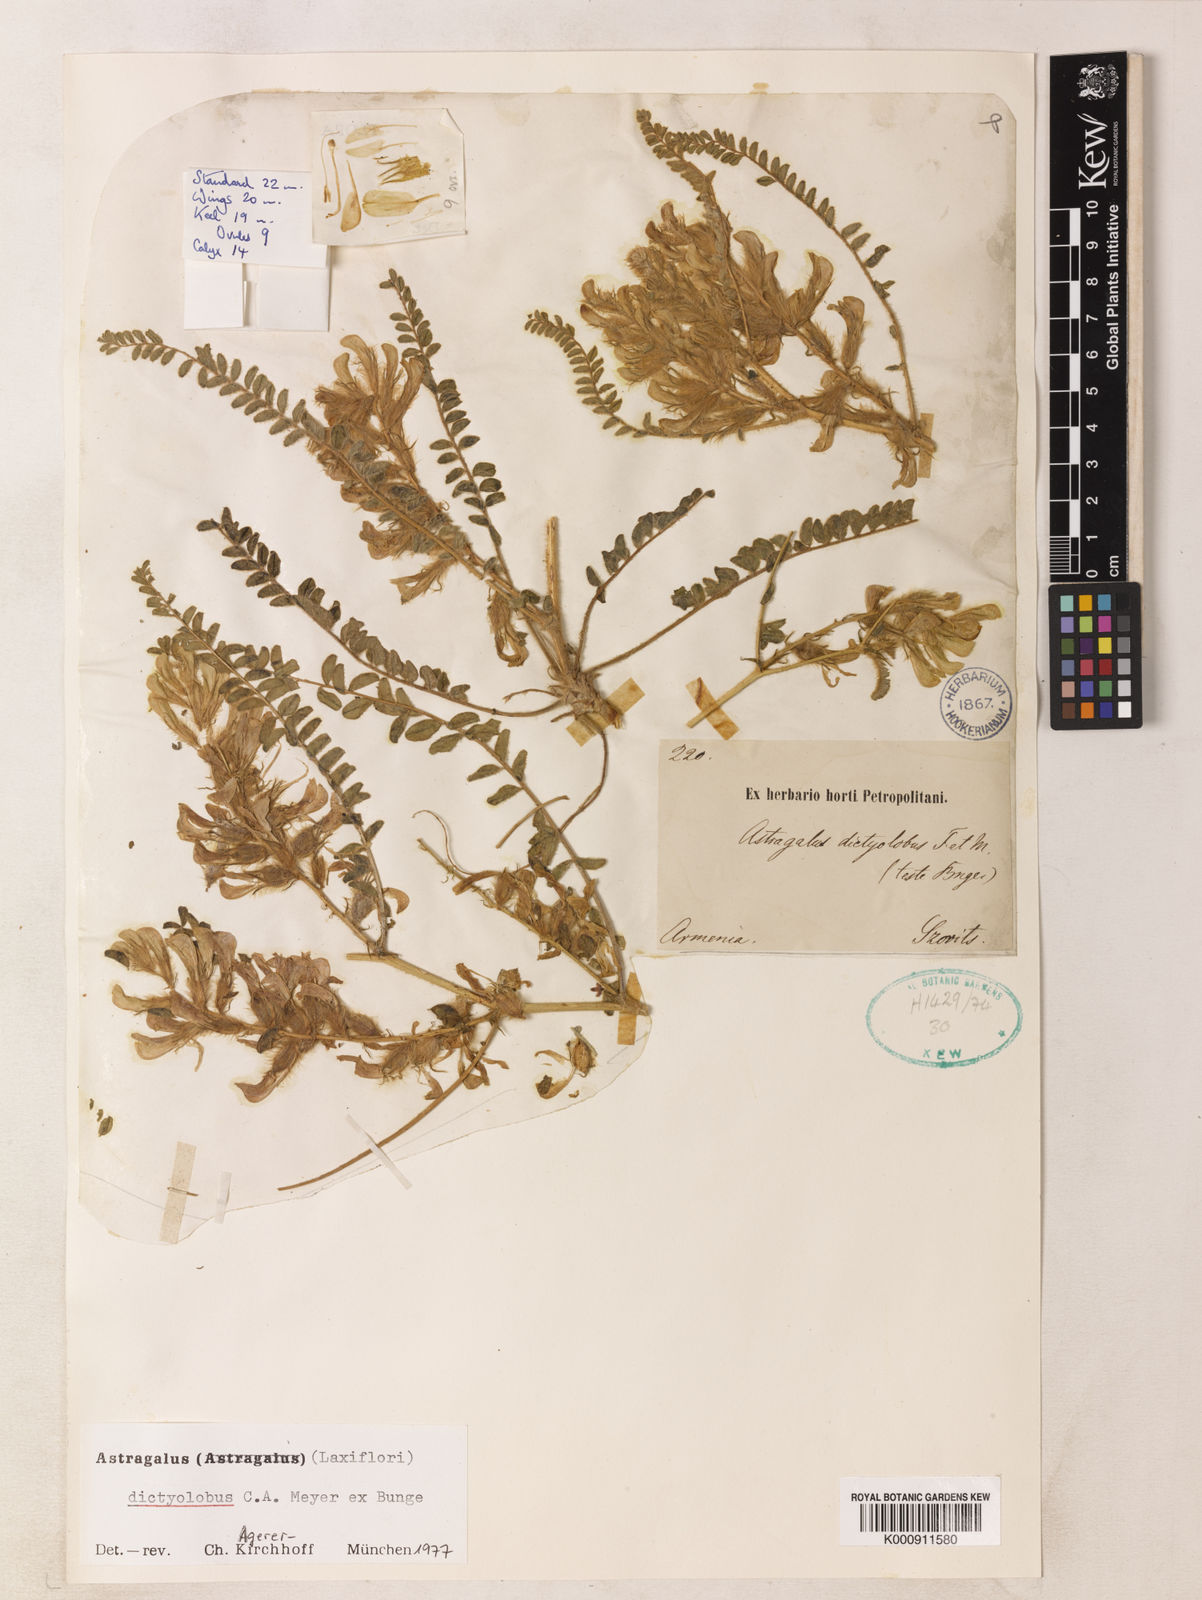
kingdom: Plantae
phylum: Tracheophyta
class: Magnoliopsida
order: Fabales
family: Fabaceae
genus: Astragalus
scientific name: Astragalus dictyolobus
